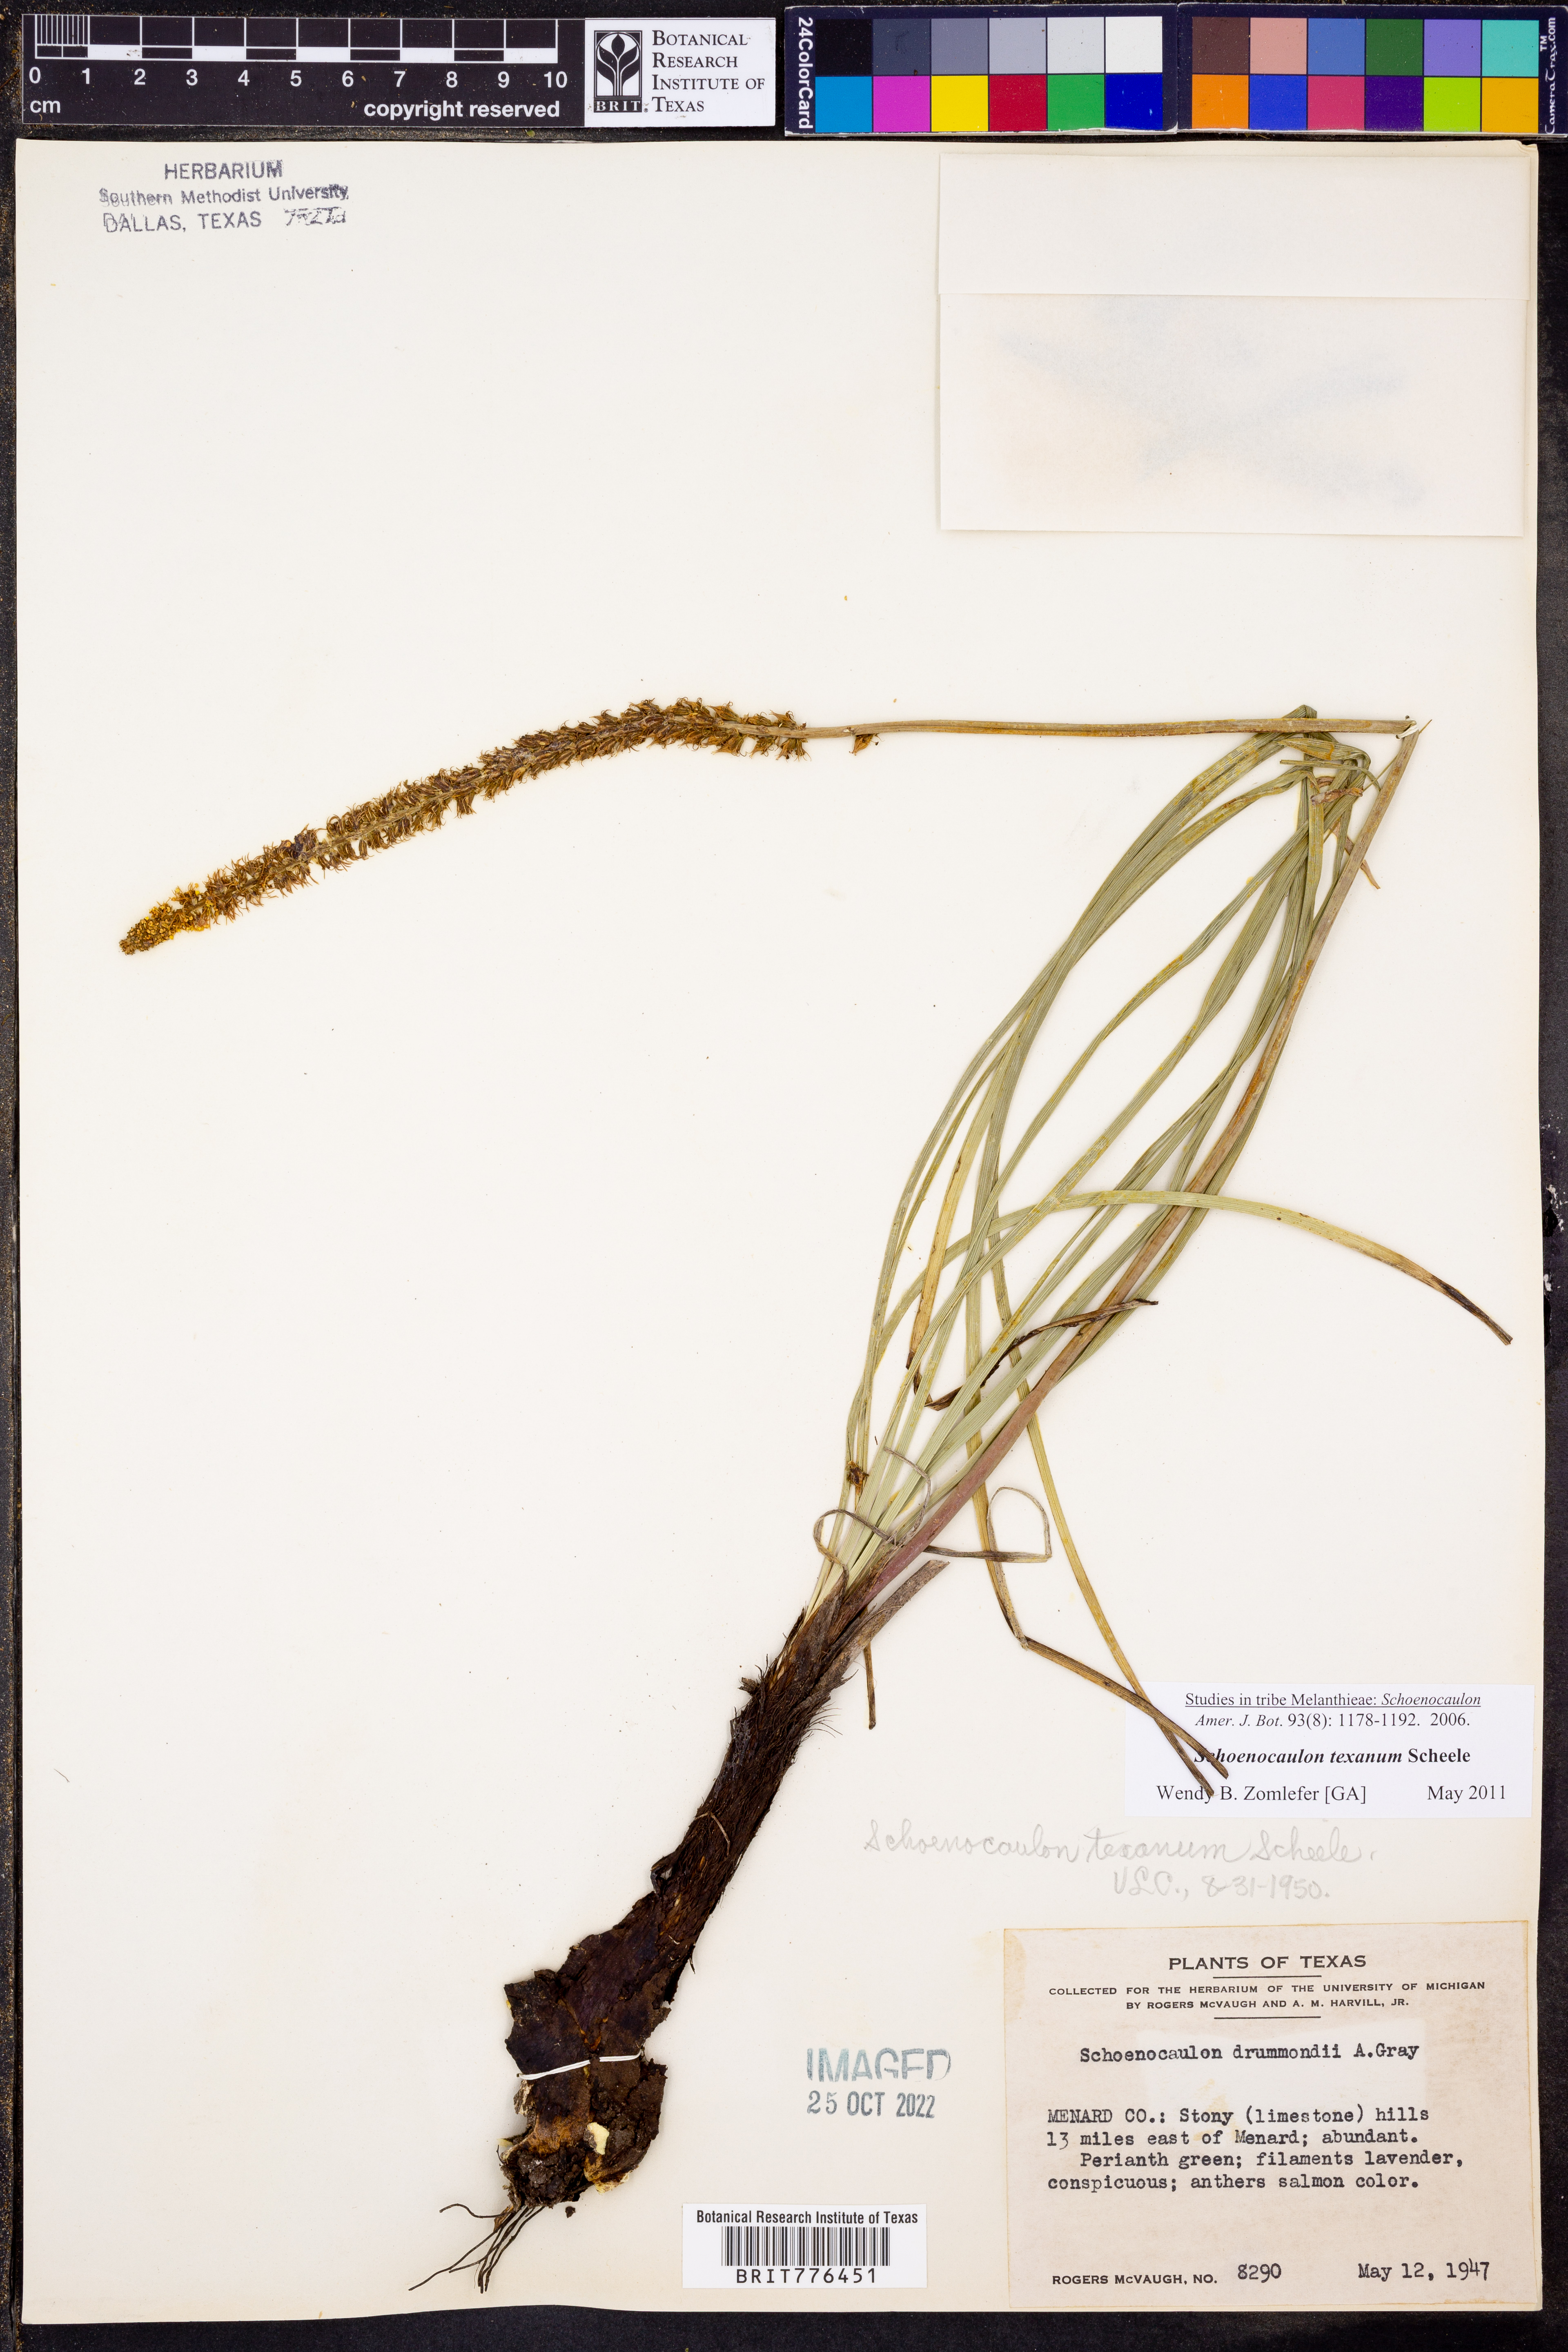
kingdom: Plantae
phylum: Tracheophyta
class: Liliopsida
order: Liliales
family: Melanthiaceae
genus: Schoenocaulon
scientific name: Schoenocaulon texanum
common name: Texas feather-shank
